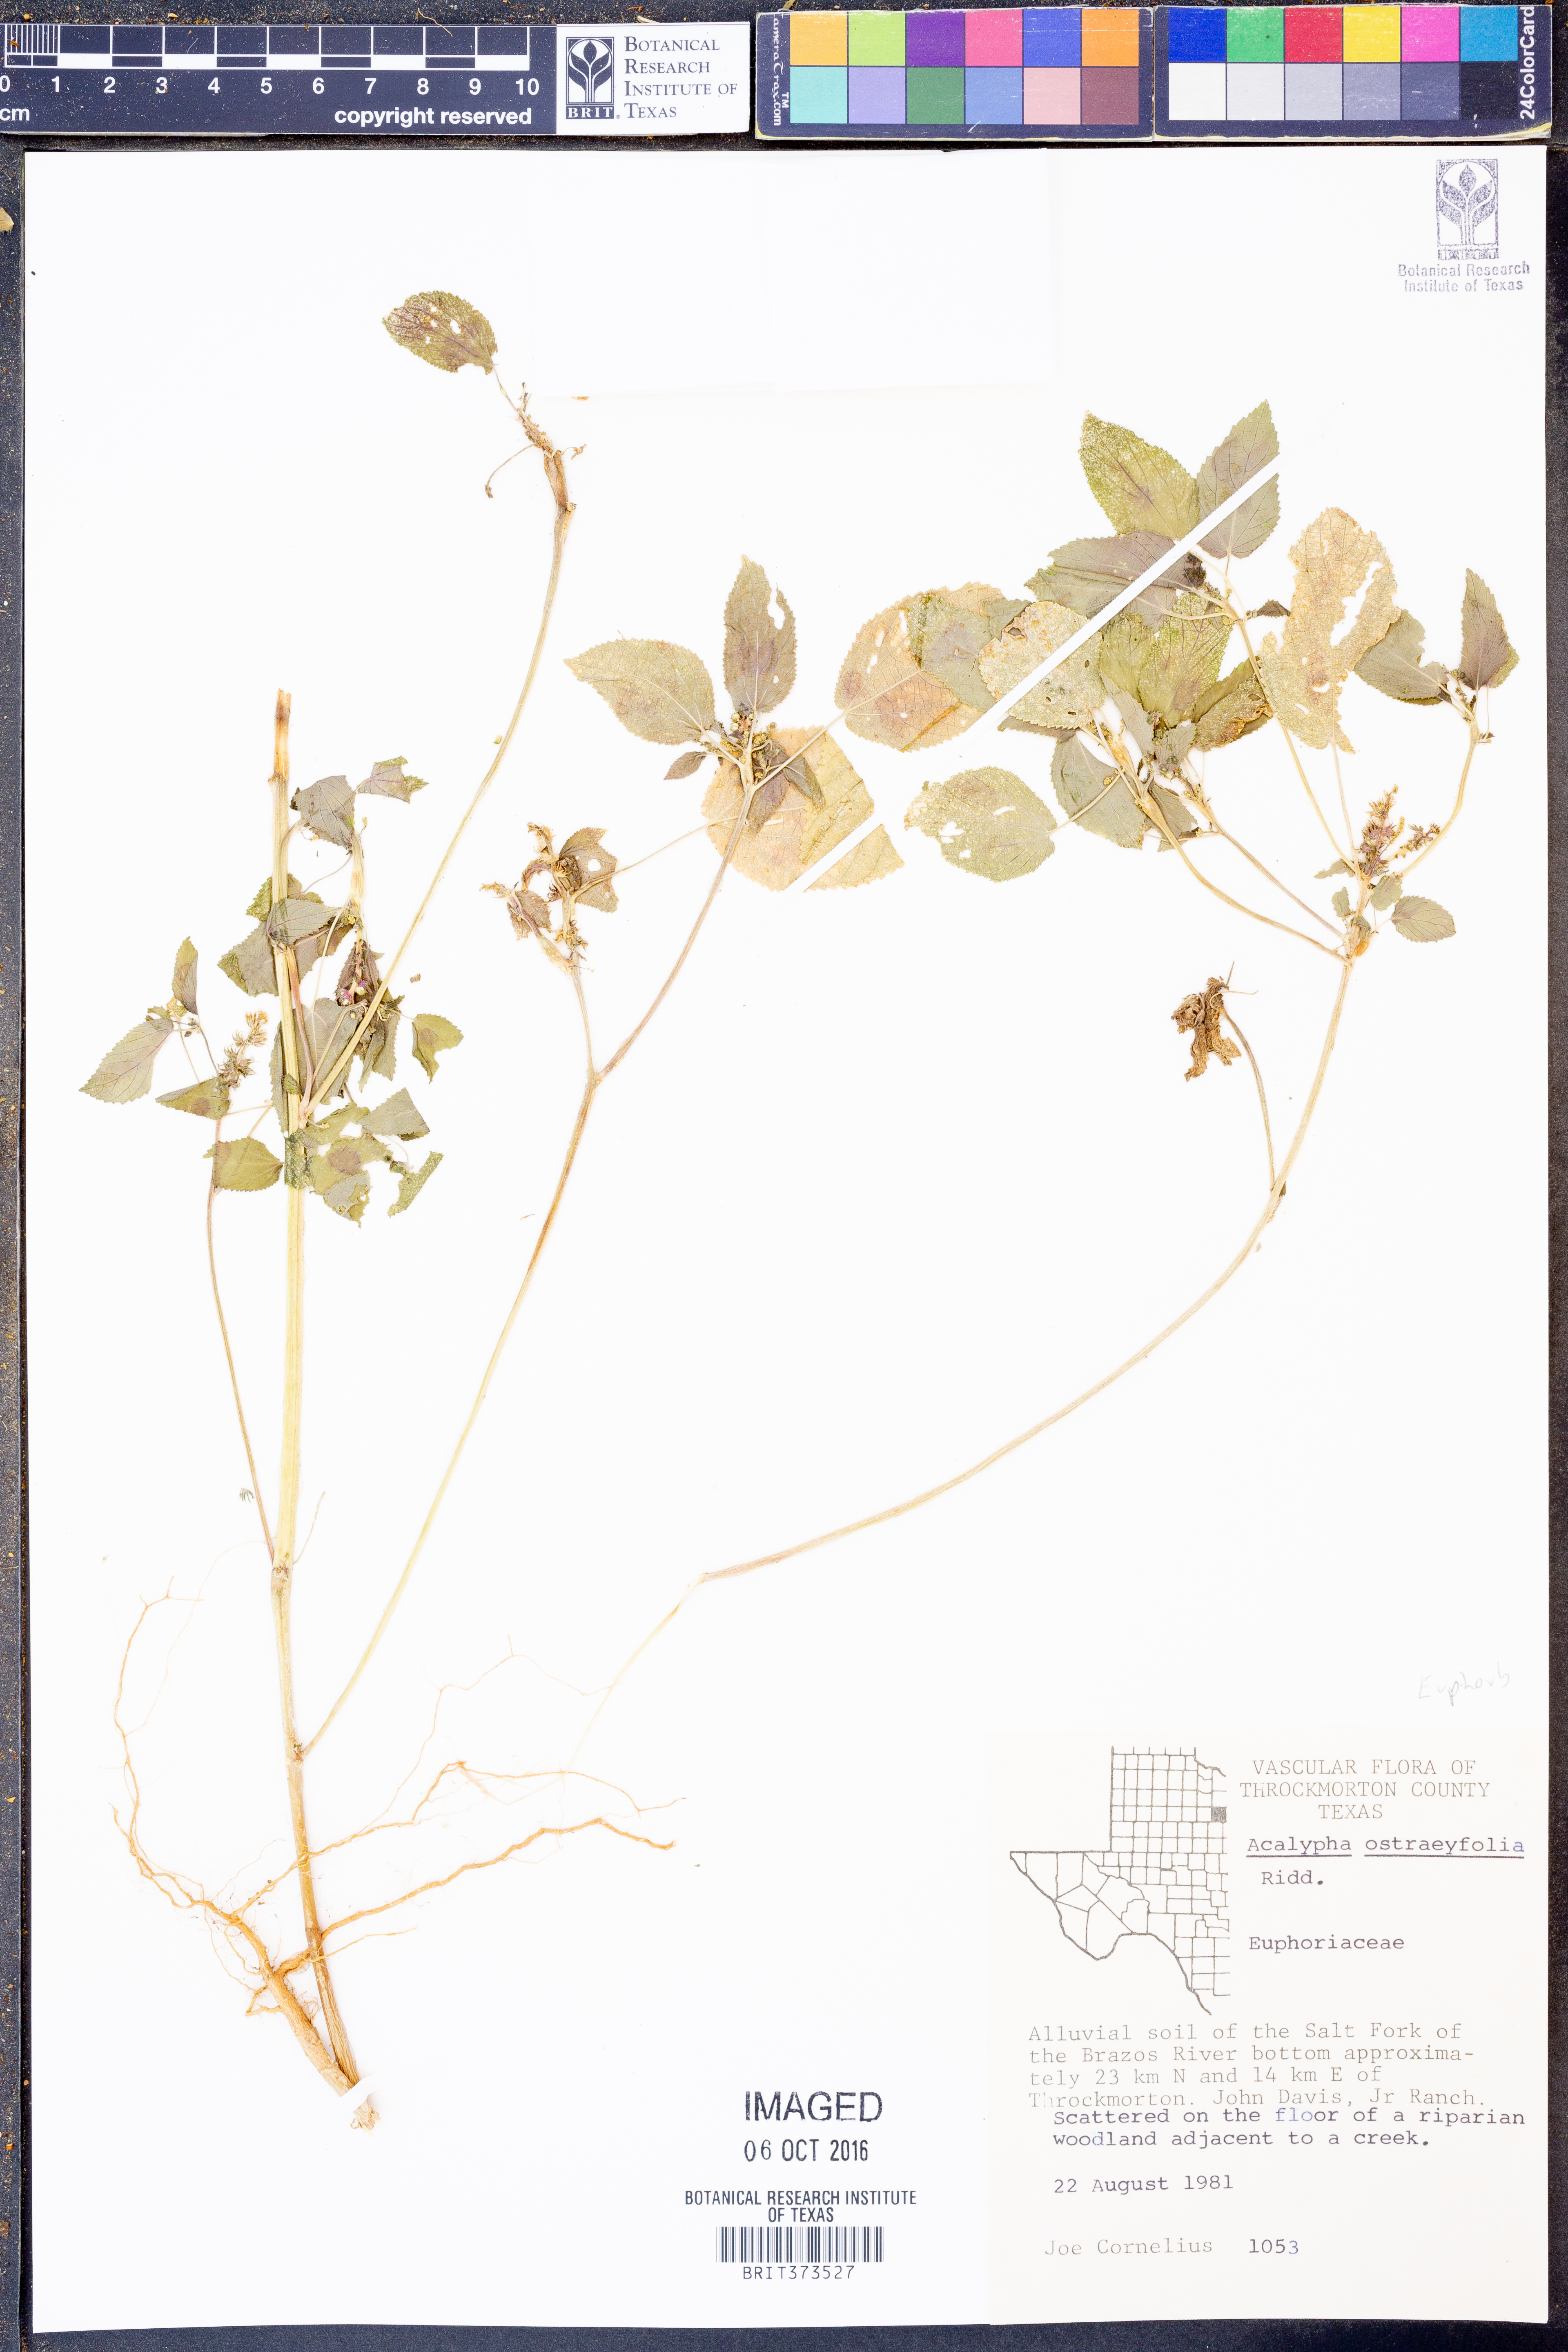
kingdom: Plantae
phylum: Tracheophyta
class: Magnoliopsida
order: Malpighiales
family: Euphorbiaceae
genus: Acalypha
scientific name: Acalypha ostryifolia
